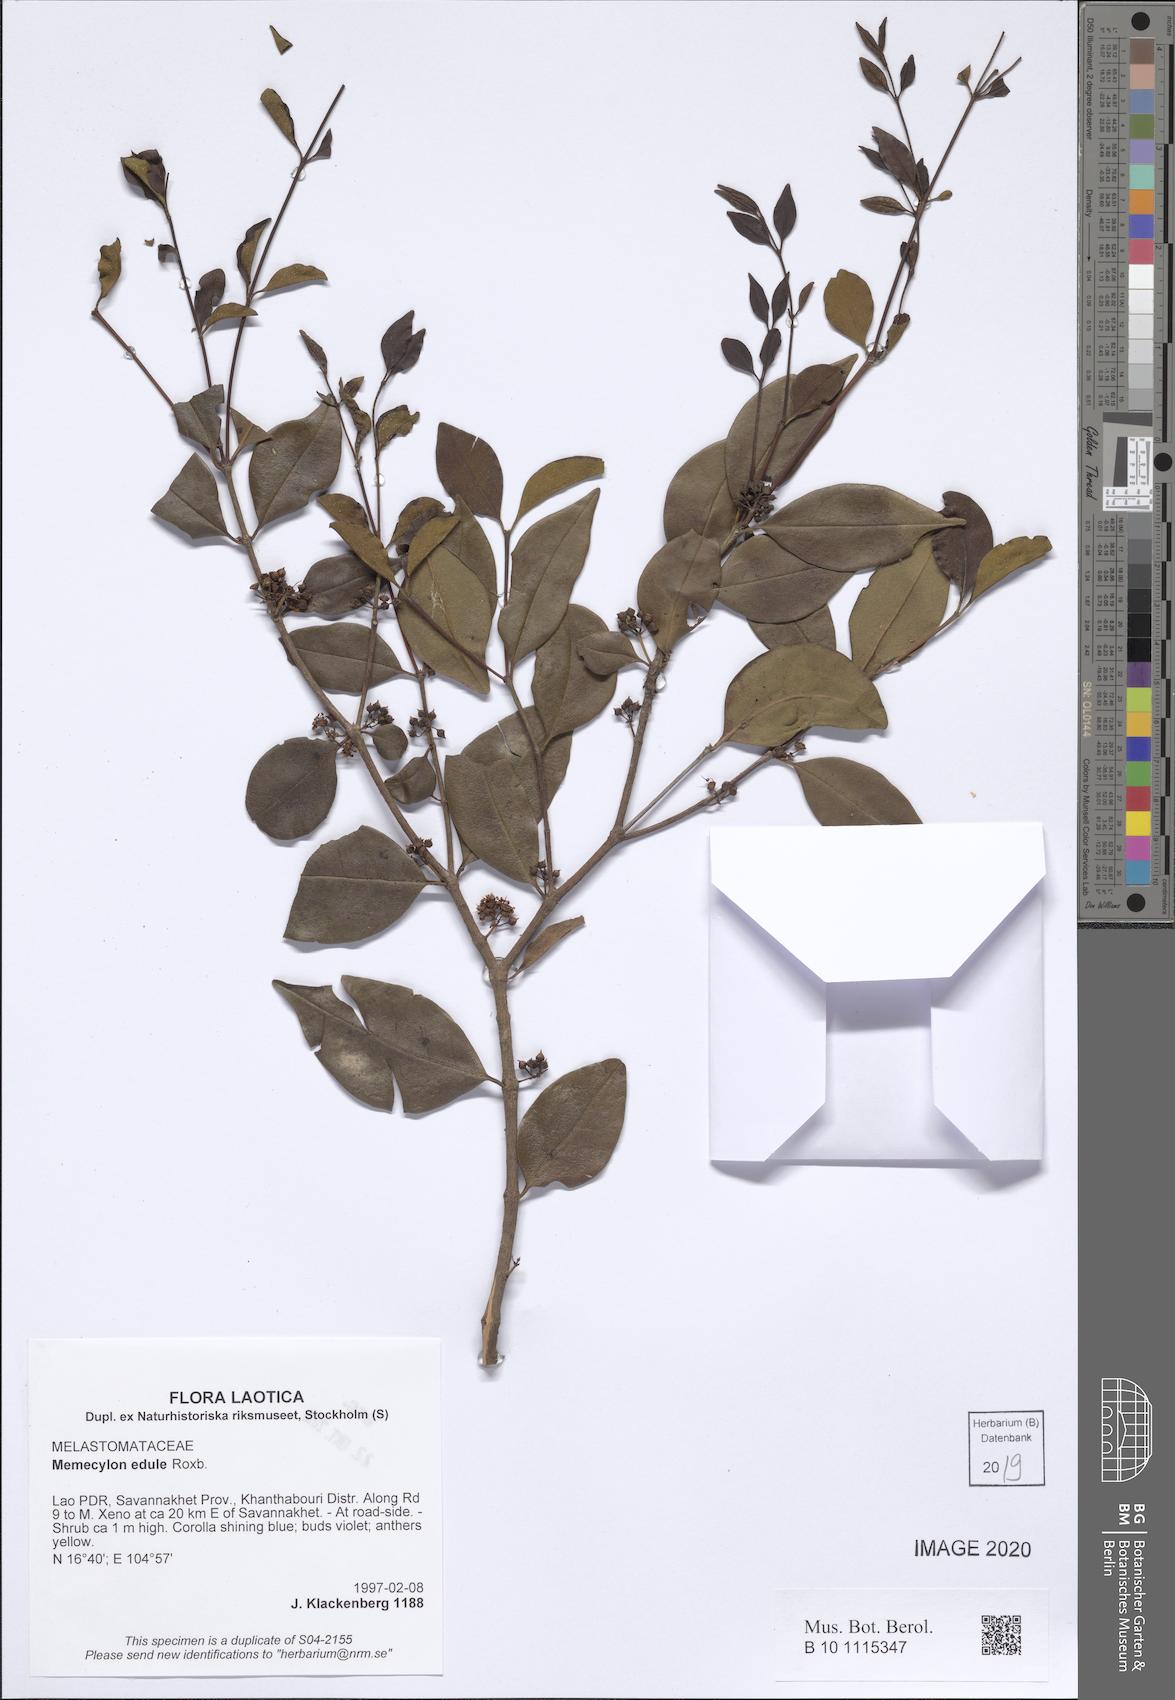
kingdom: Plantae
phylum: Tracheophyta
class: Magnoliopsida
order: Myrtales
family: Melastomataceae
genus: Memecylon
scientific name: Memecylon edule
